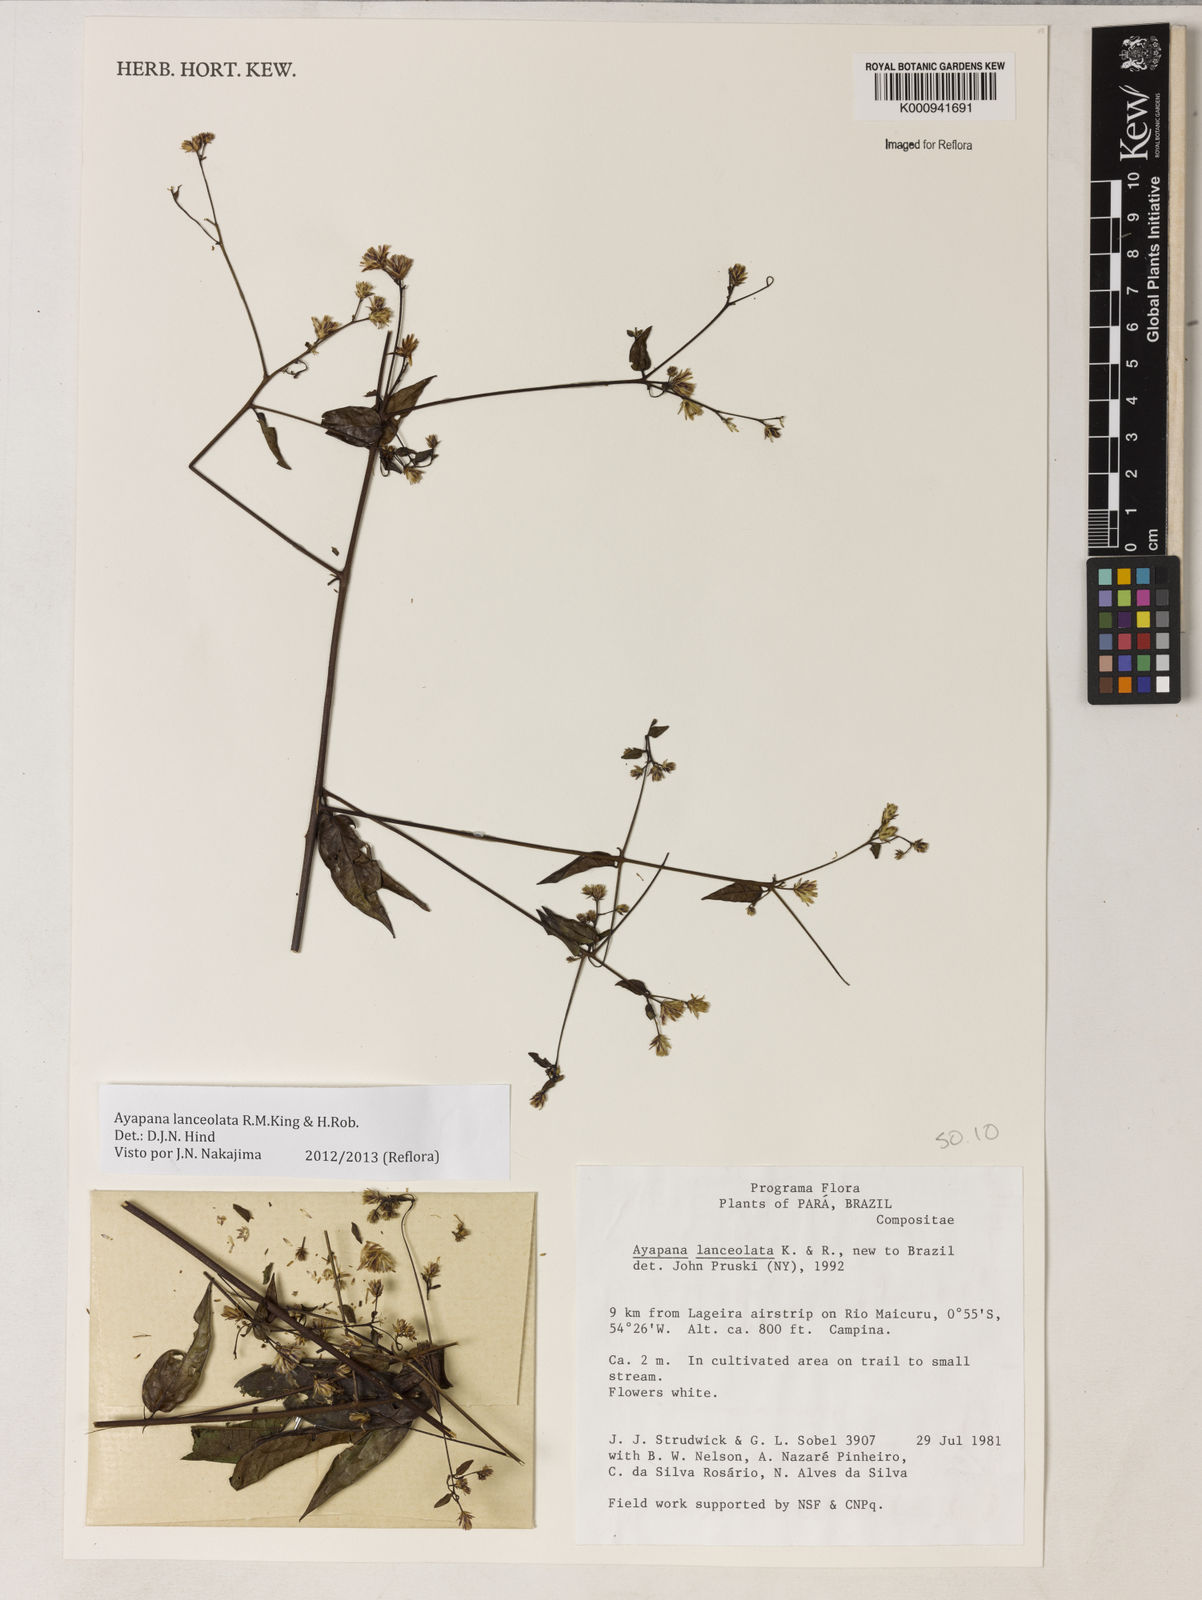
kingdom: Plantae
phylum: Tracheophyta
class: Magnoliopsida
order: Asterales
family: Asteraceae
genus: Ayapana
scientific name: Ayapana lanceolata
